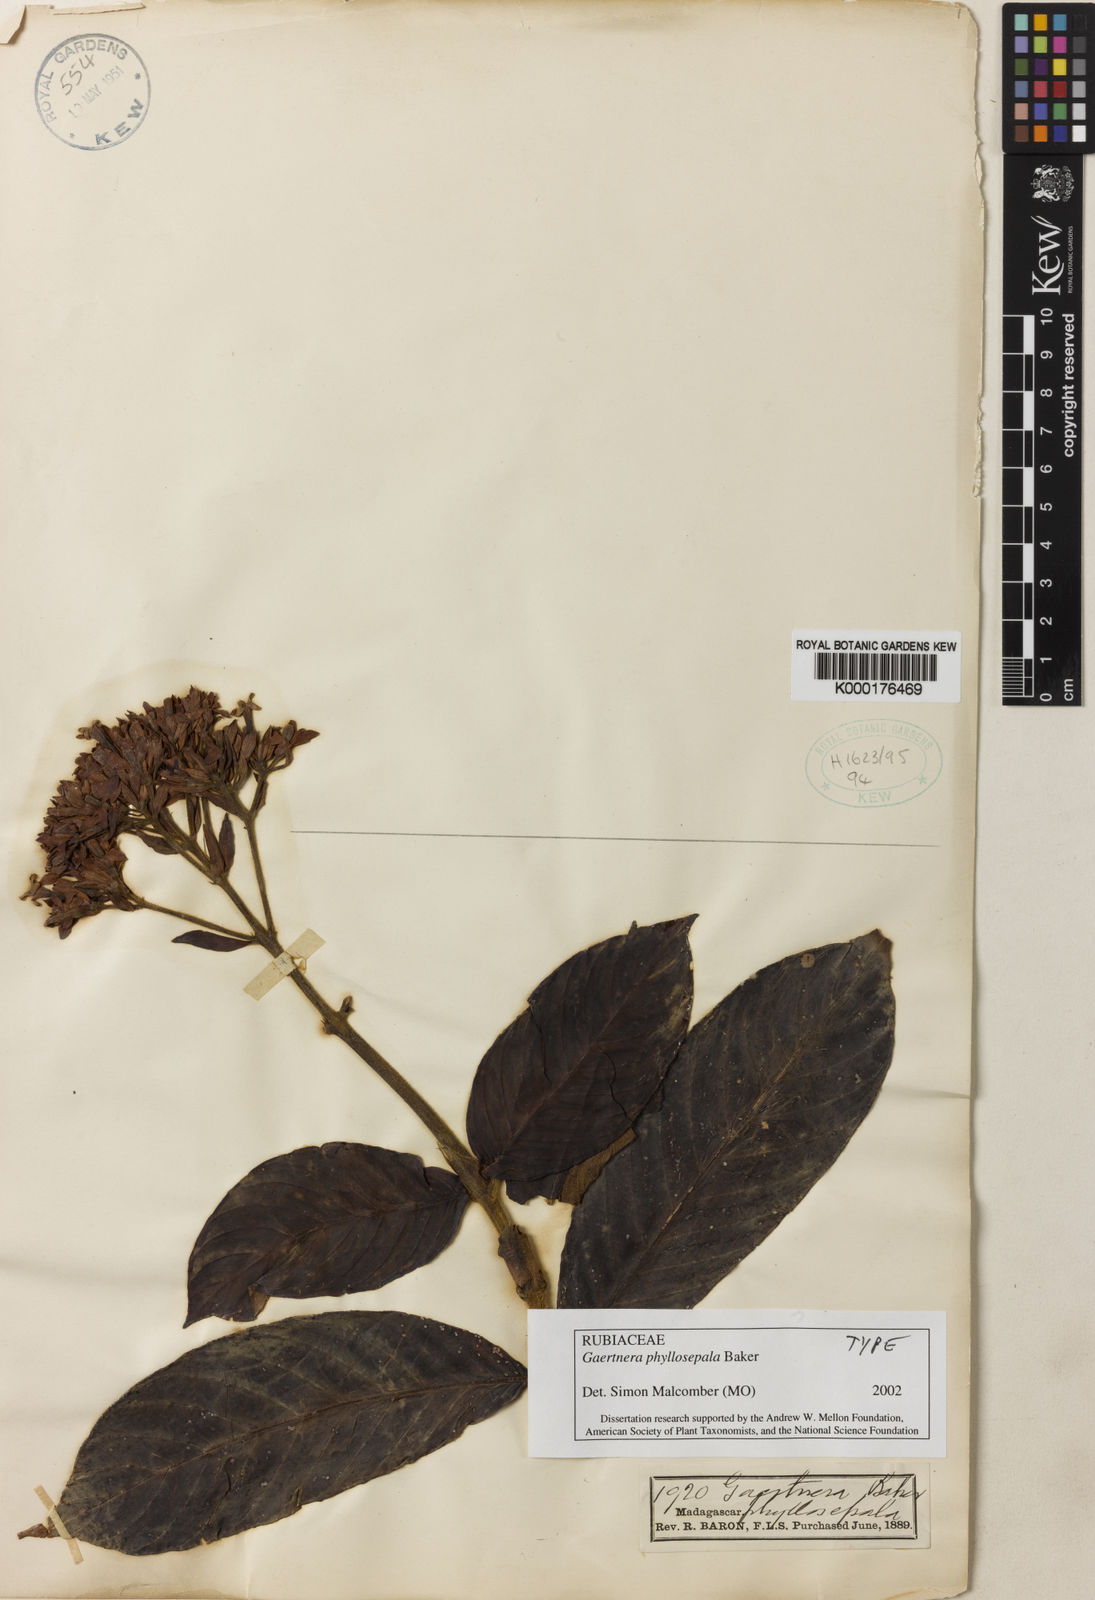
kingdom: Plantae
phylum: Tracheophyta
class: Magnoliopsida
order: Gentianales
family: Rubiaceae
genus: Gaertnera
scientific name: Gaertnera phyllosepala
